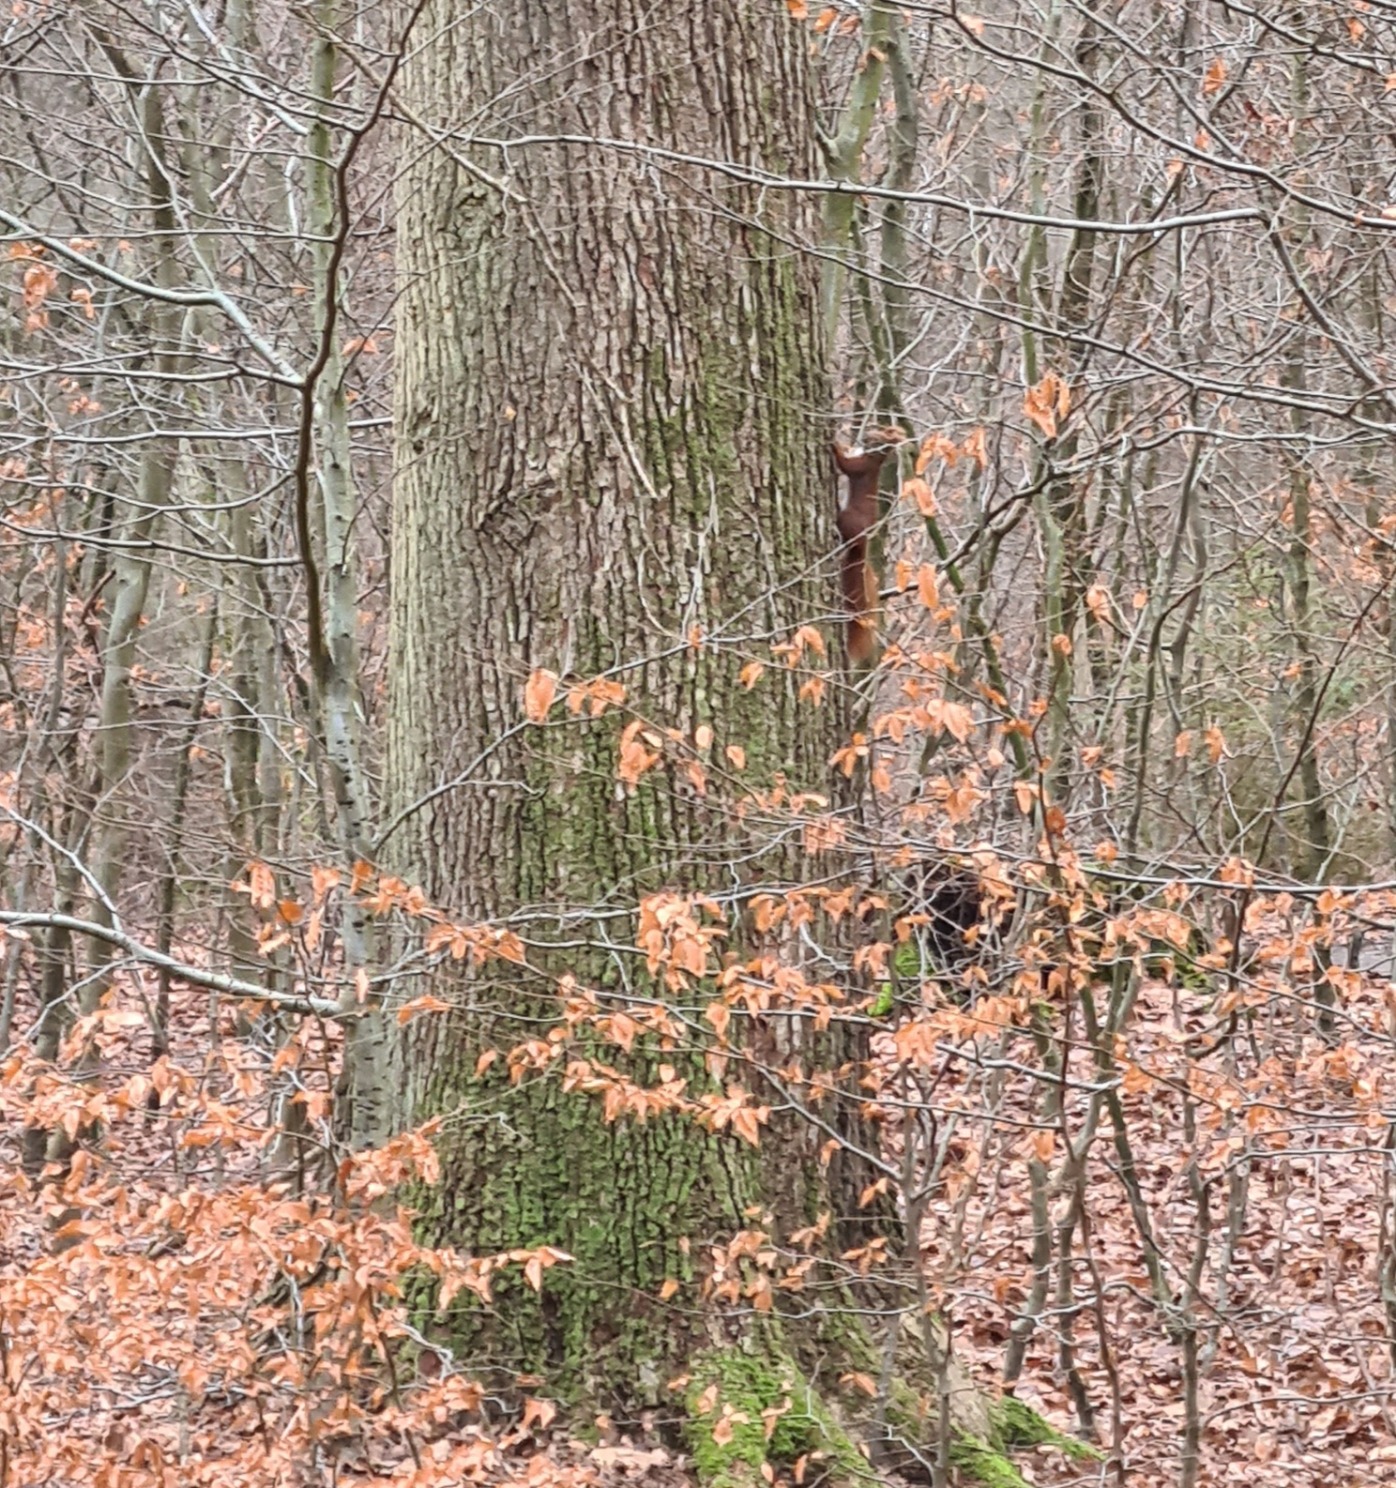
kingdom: Animalia
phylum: Chordata
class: Mammalia
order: Rodentia
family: Sciuridae
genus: Sciurus
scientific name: Sciurus vulgaris
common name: Egern
